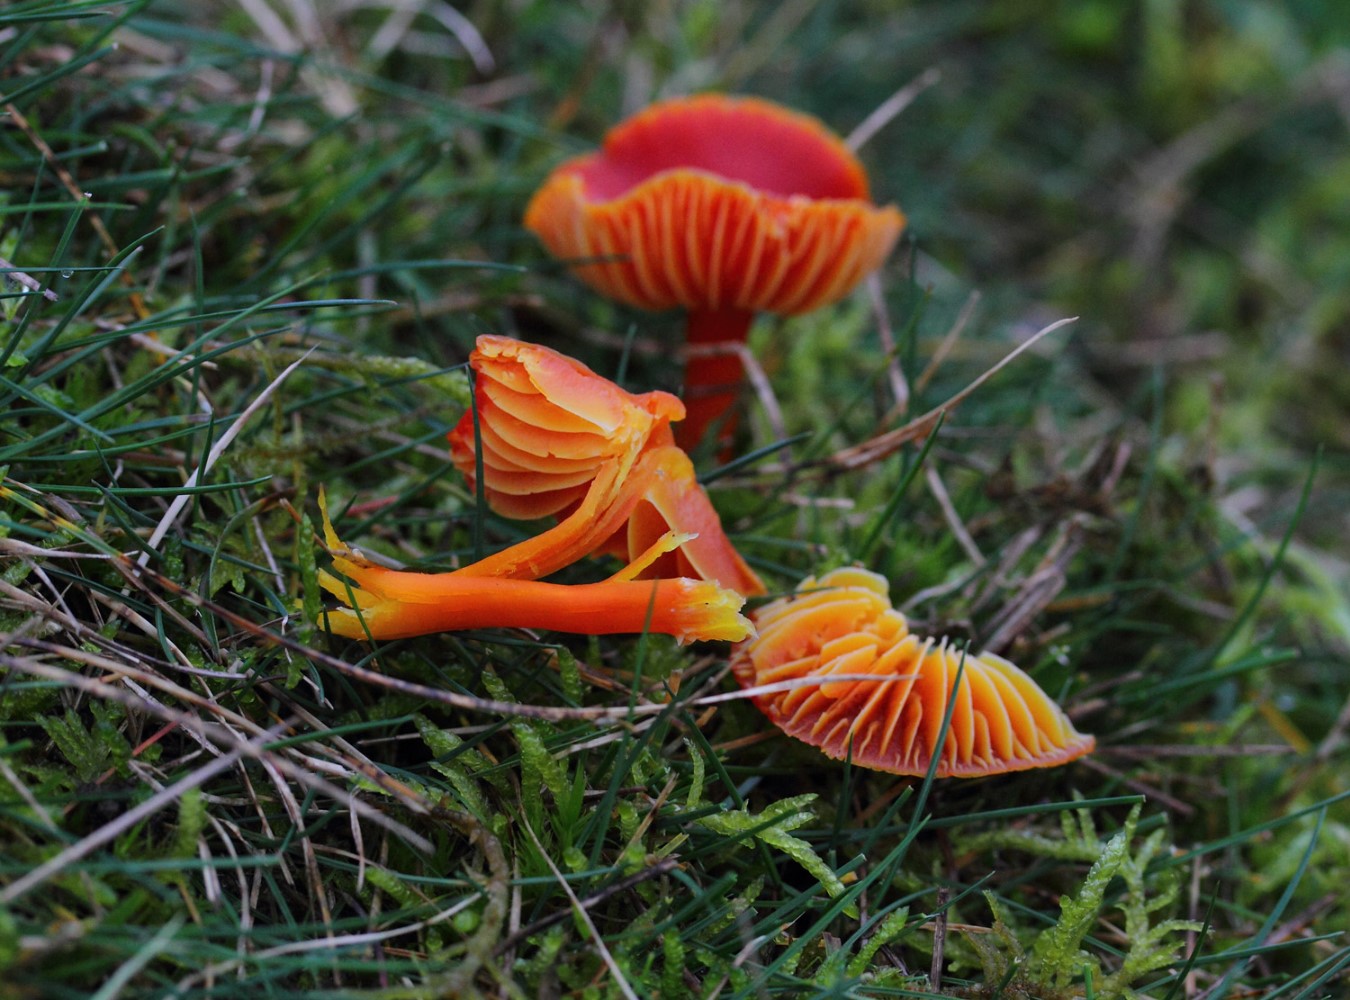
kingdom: Fungi
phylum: Basidiomycota
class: Agaricomycetes
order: Agaricales
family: Hygrophoraceae
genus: Hygrocybe
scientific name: Hygrocybe coccinea
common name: cinnober-vokshat
